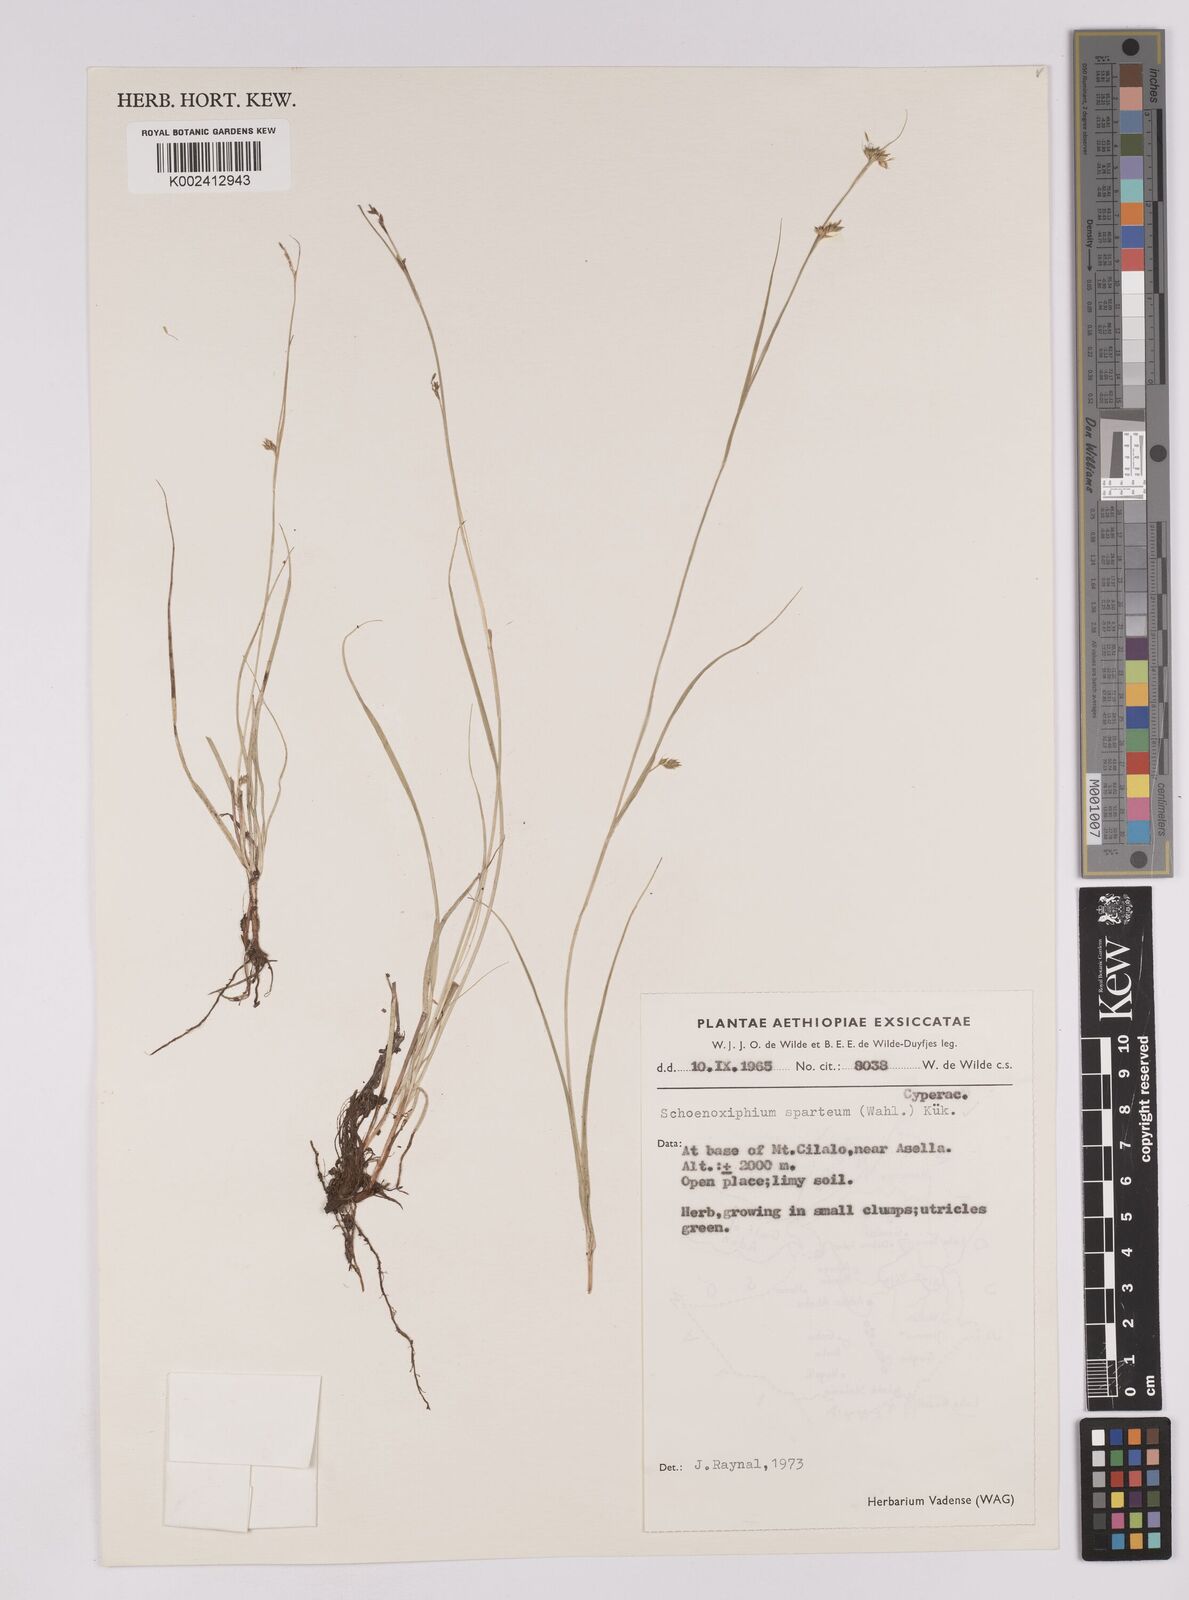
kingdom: Plantae
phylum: Tracheophyta
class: Liliopsida
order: Poales
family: Cyperaceae
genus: Carex
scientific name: Carex spartea
